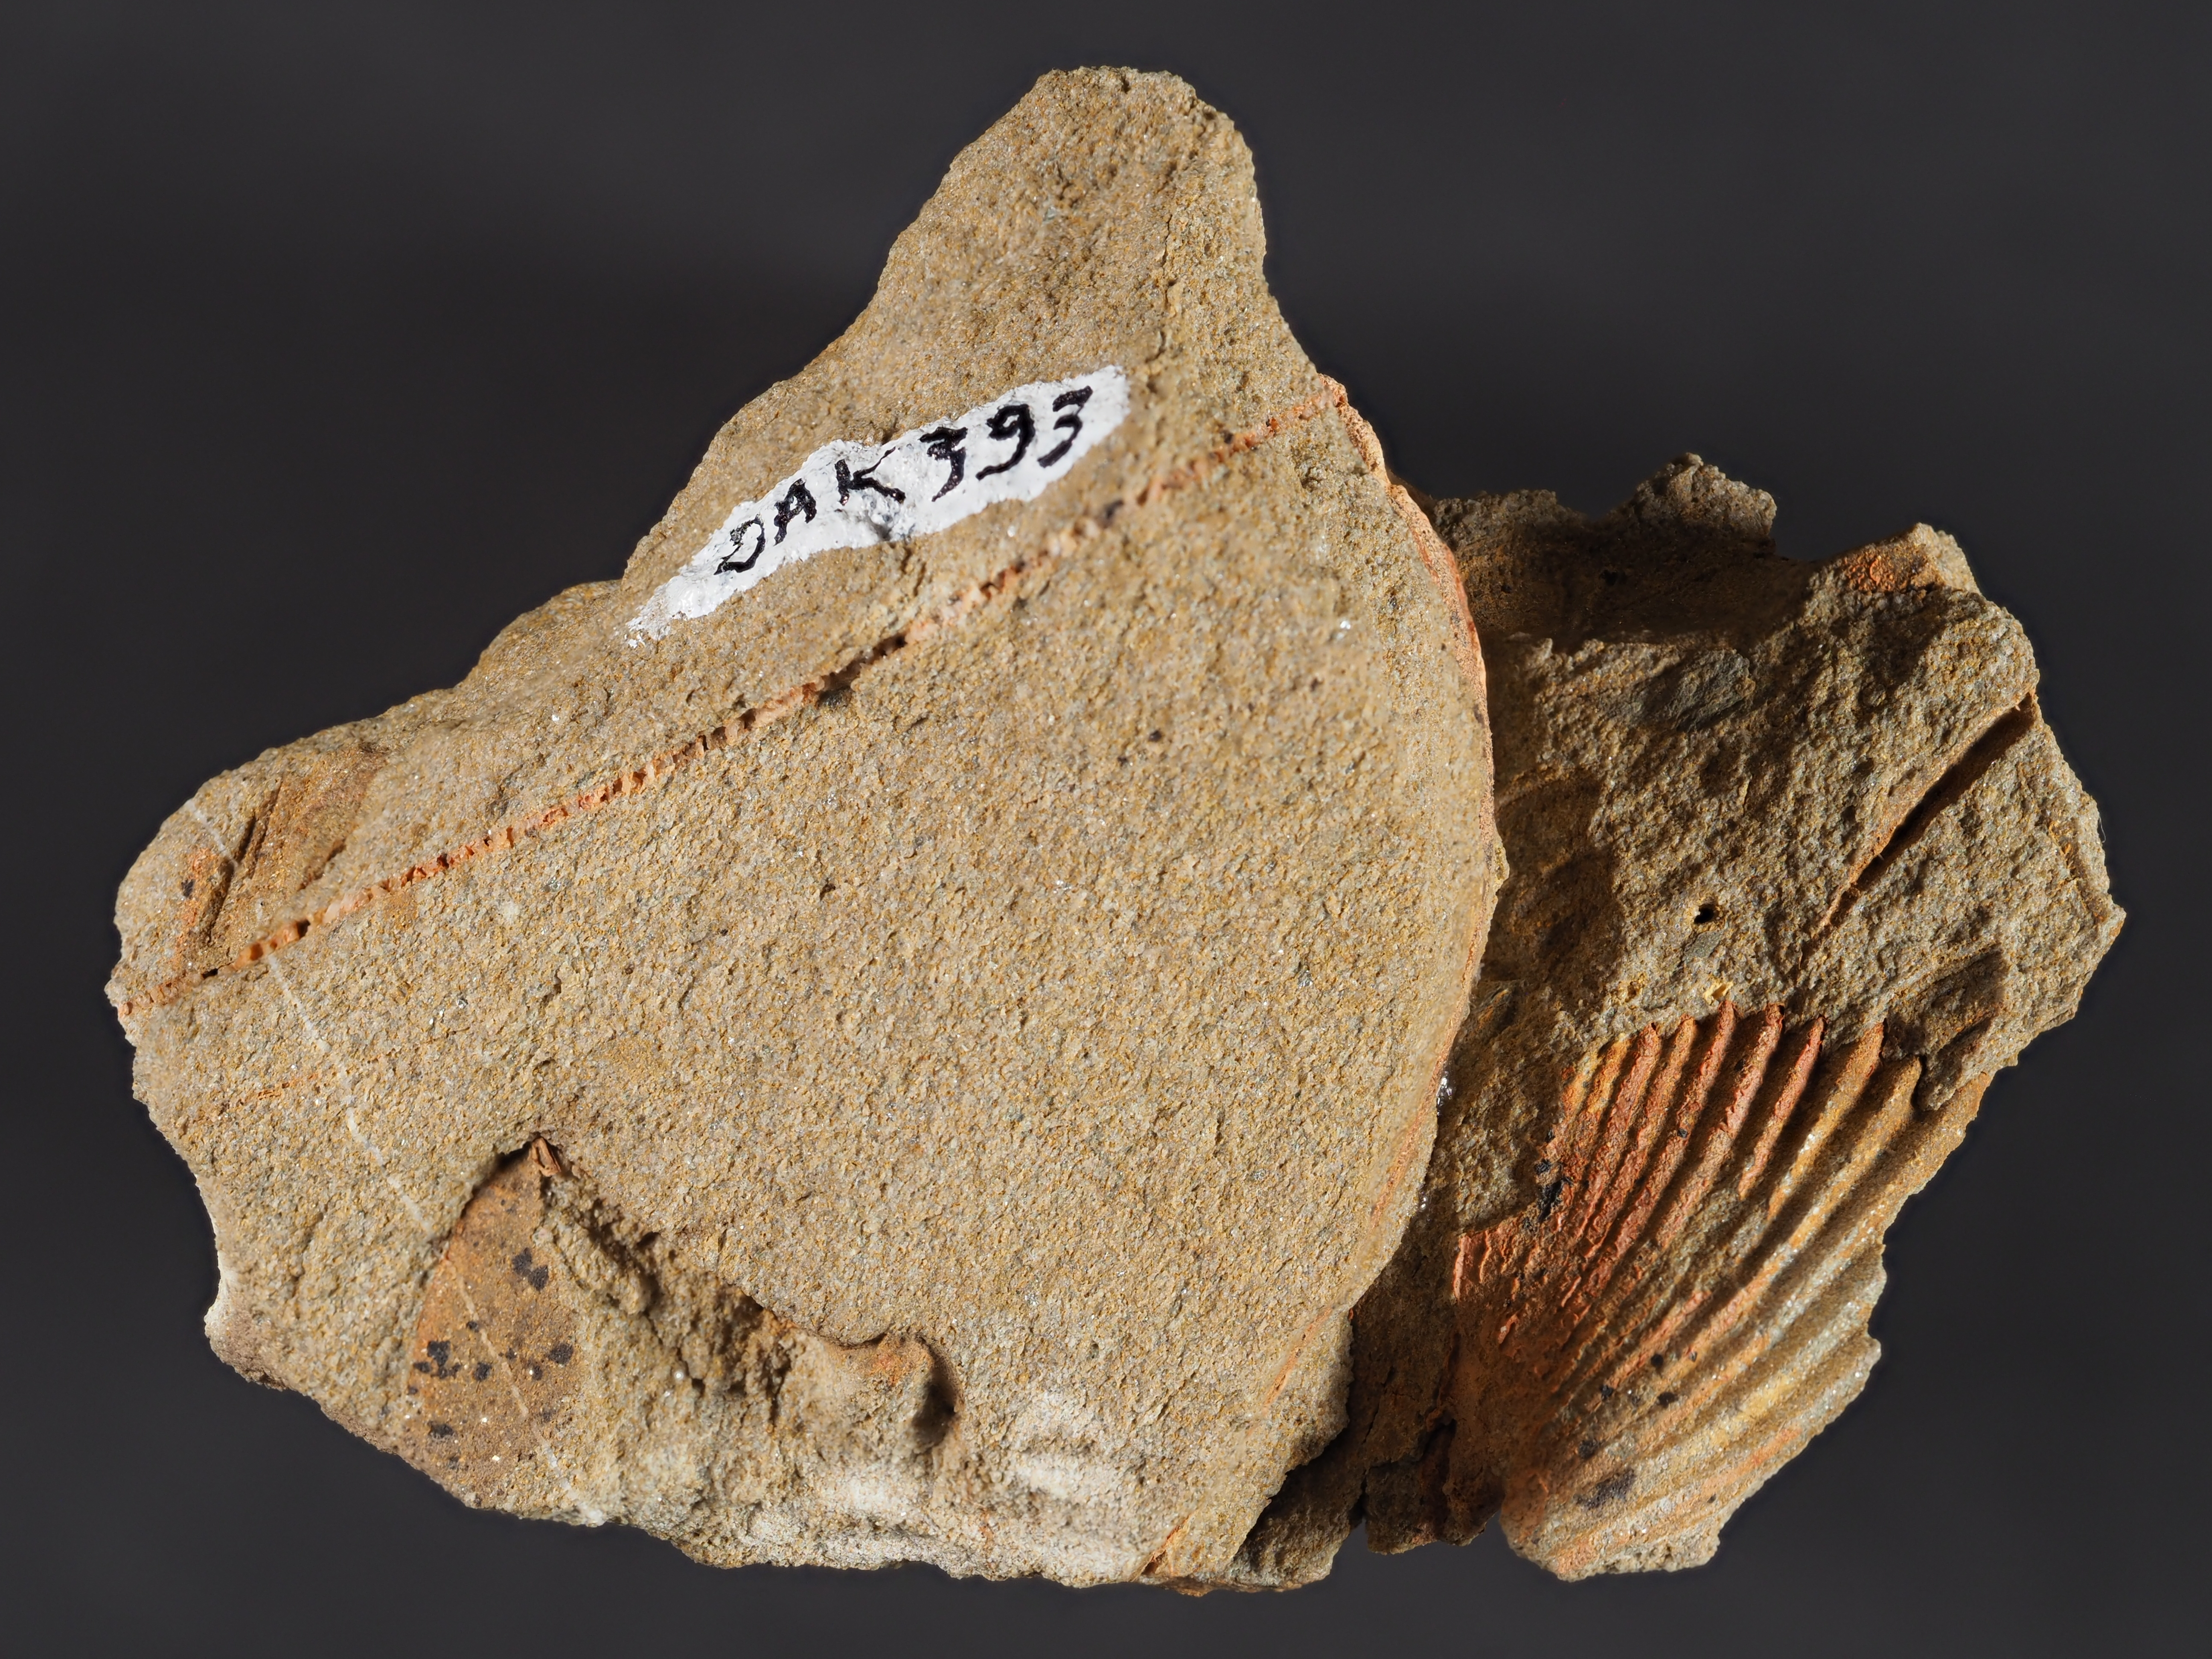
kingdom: Animalia
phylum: Brachiopoda
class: Rhynchonellata
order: Rhynchonellida
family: Trigonirhynchiidae
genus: Oligoptycherhynchus
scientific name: Oligoptycherhynchus
